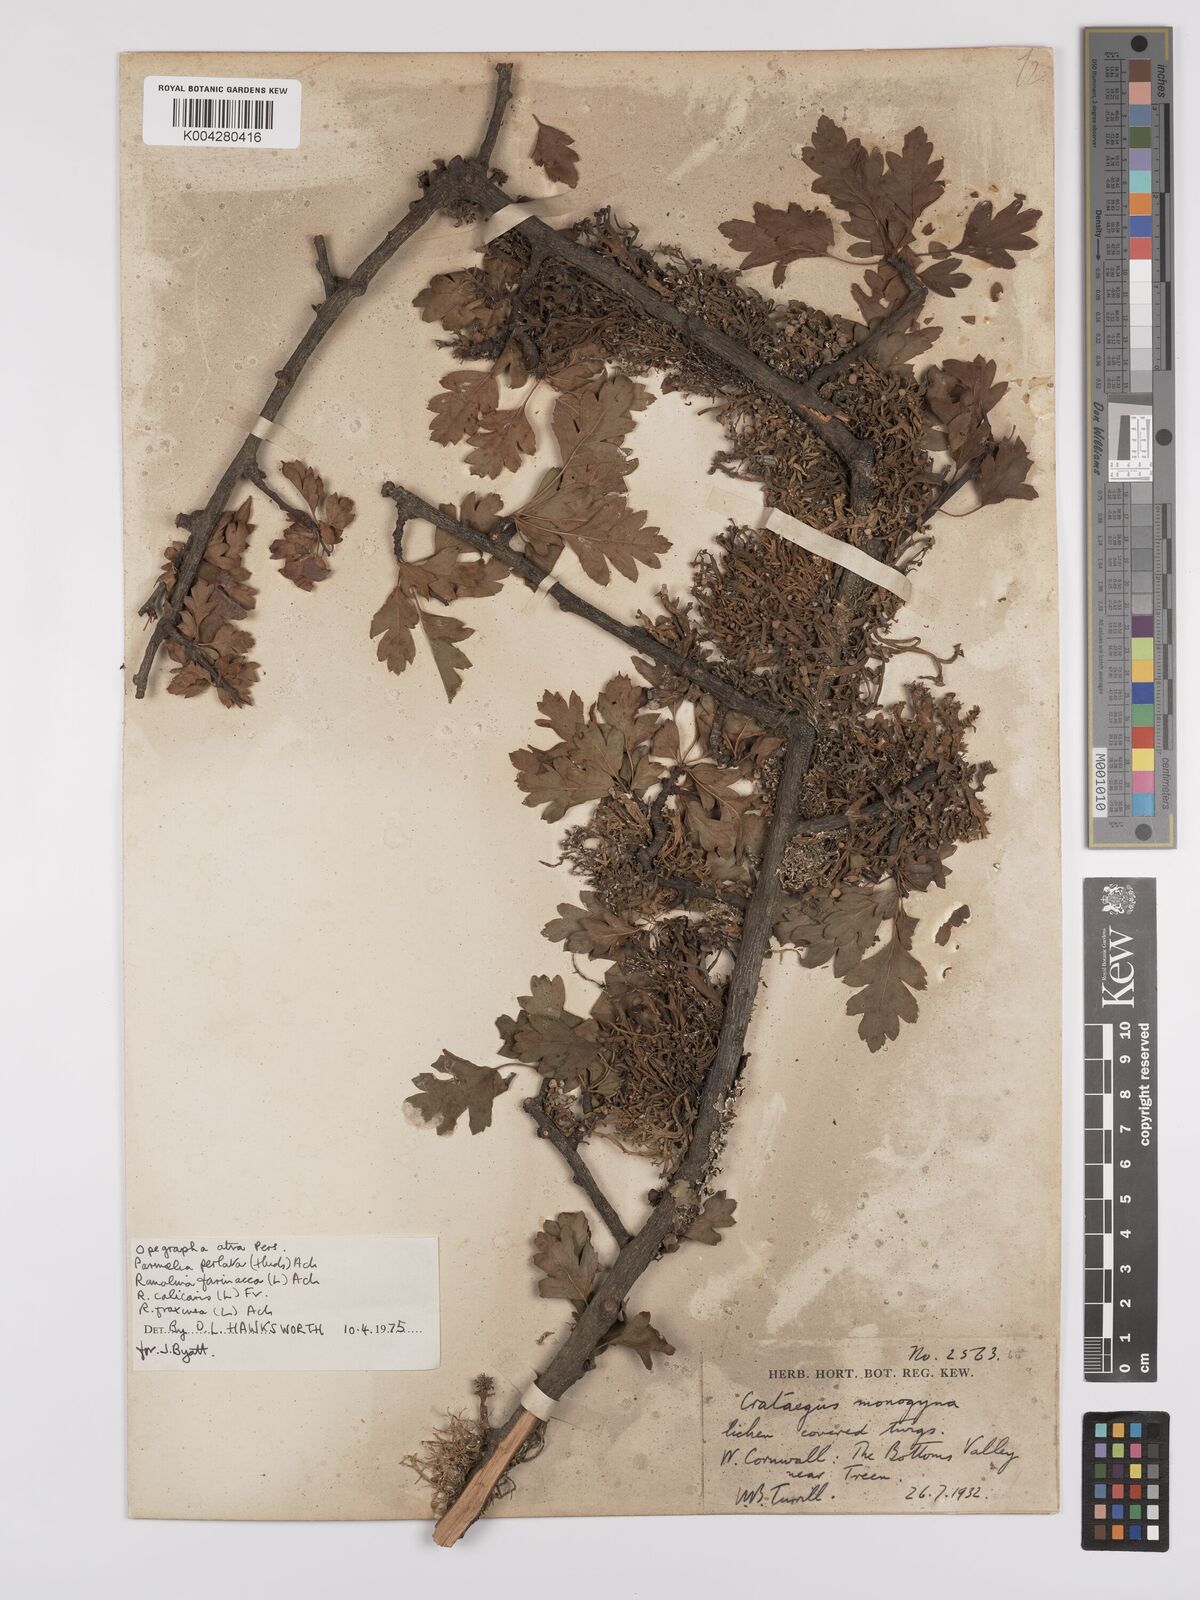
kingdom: Plantae
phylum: Tracheophyta
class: Magnoliopsida
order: Rosales
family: Rosaceae
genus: Crataegus
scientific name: Crataegus monogyna
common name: Hawthorn
